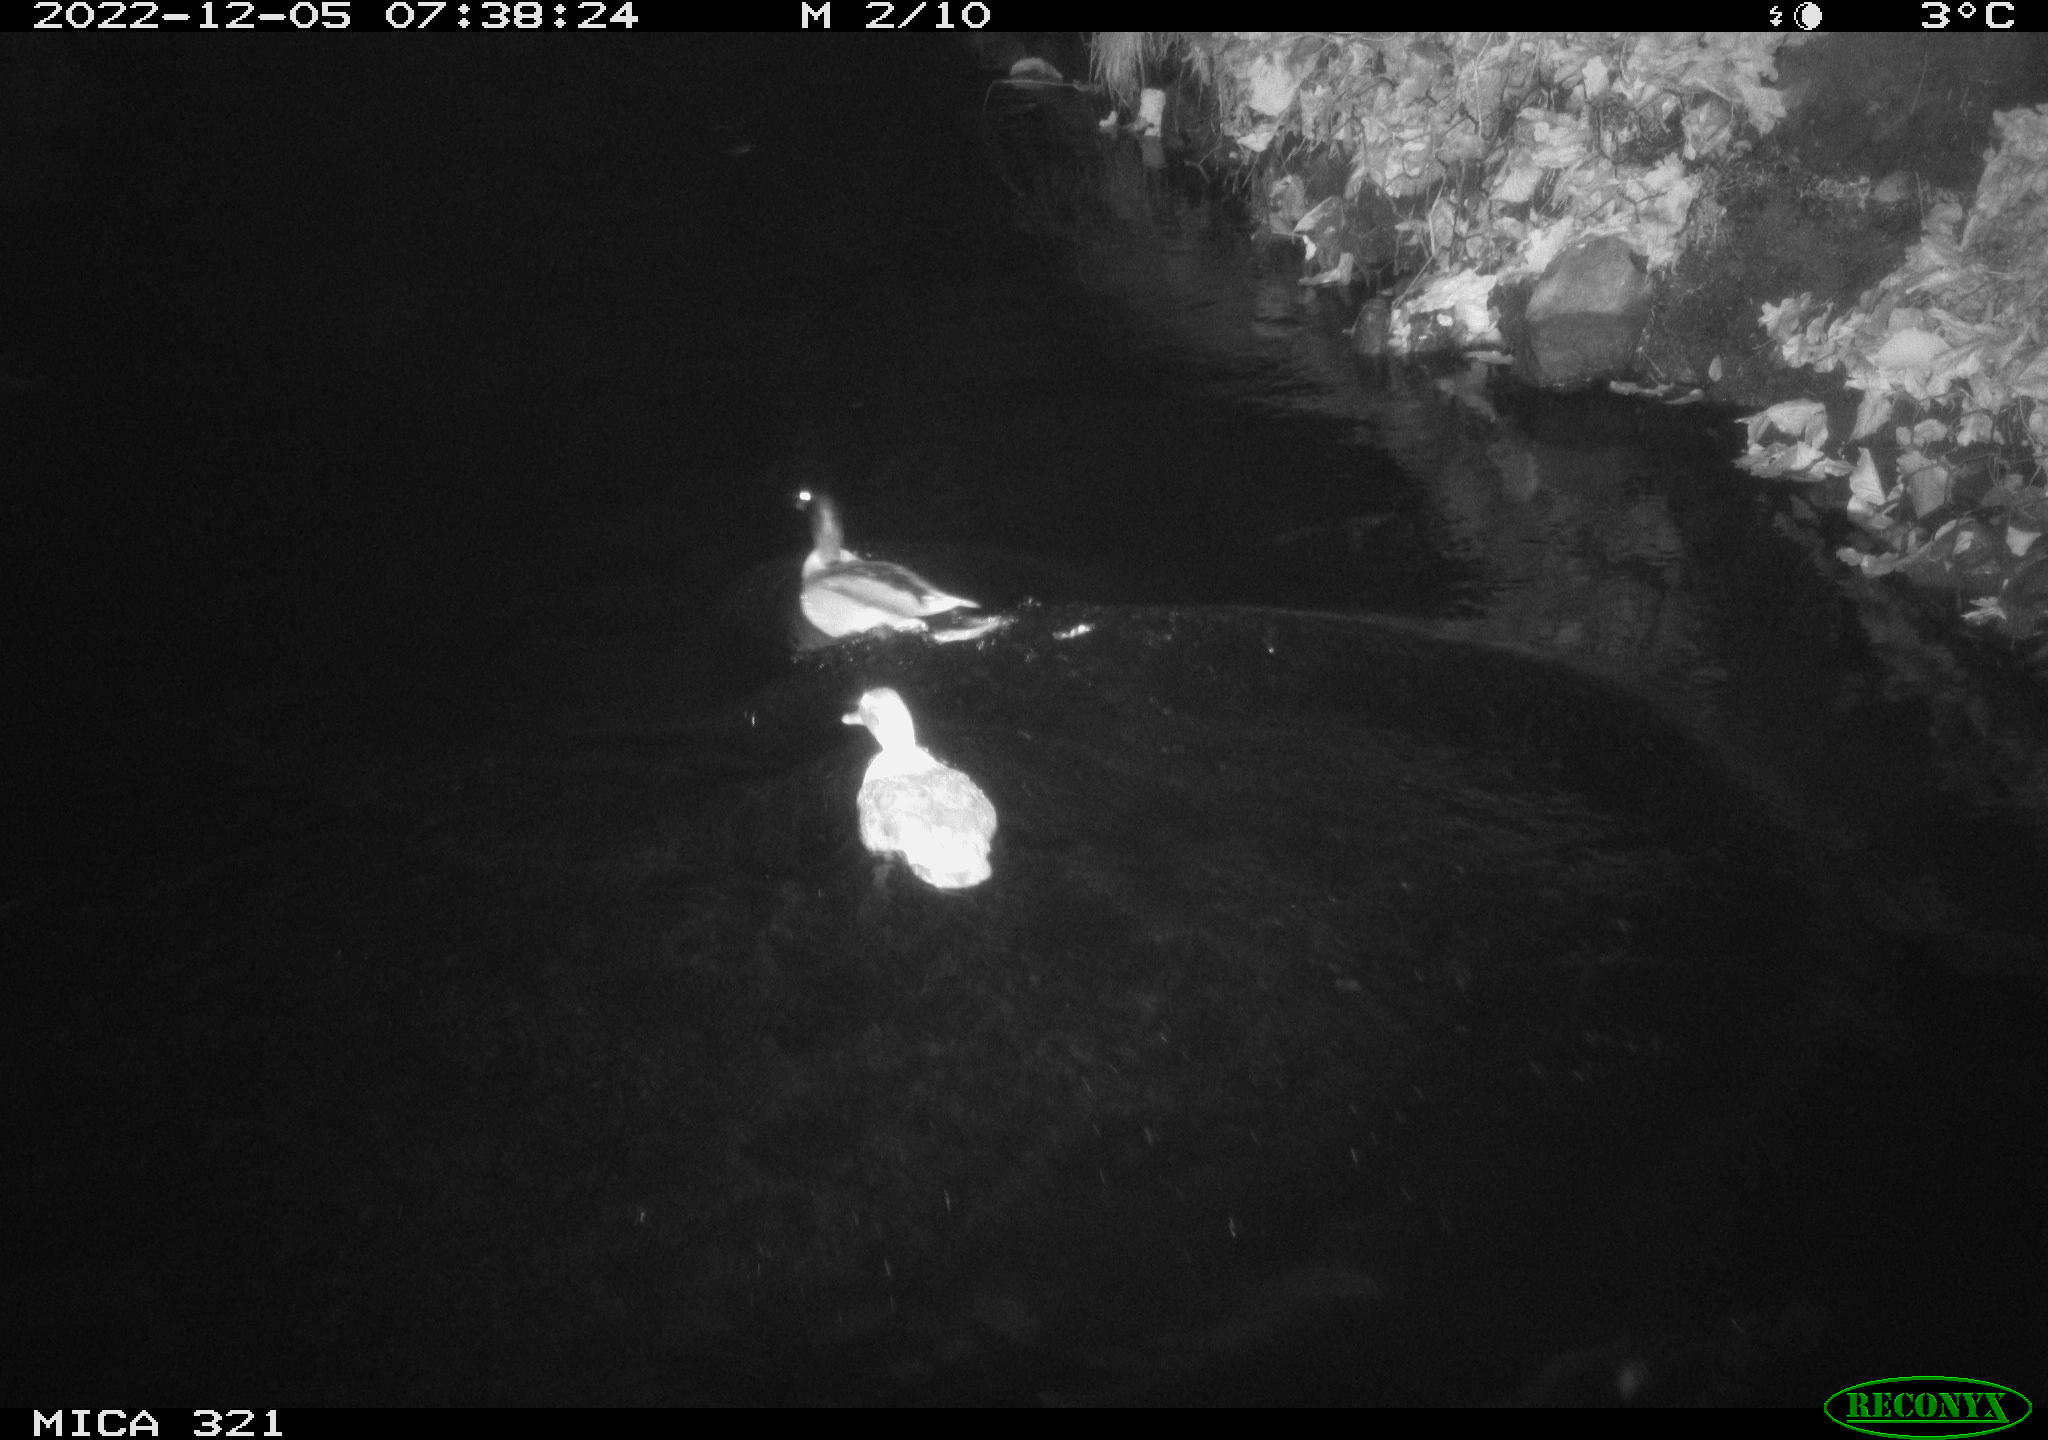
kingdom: Animalia
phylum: Chordata
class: Aves
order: Anseriformes
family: Anatidae
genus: Anas
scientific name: Anas
